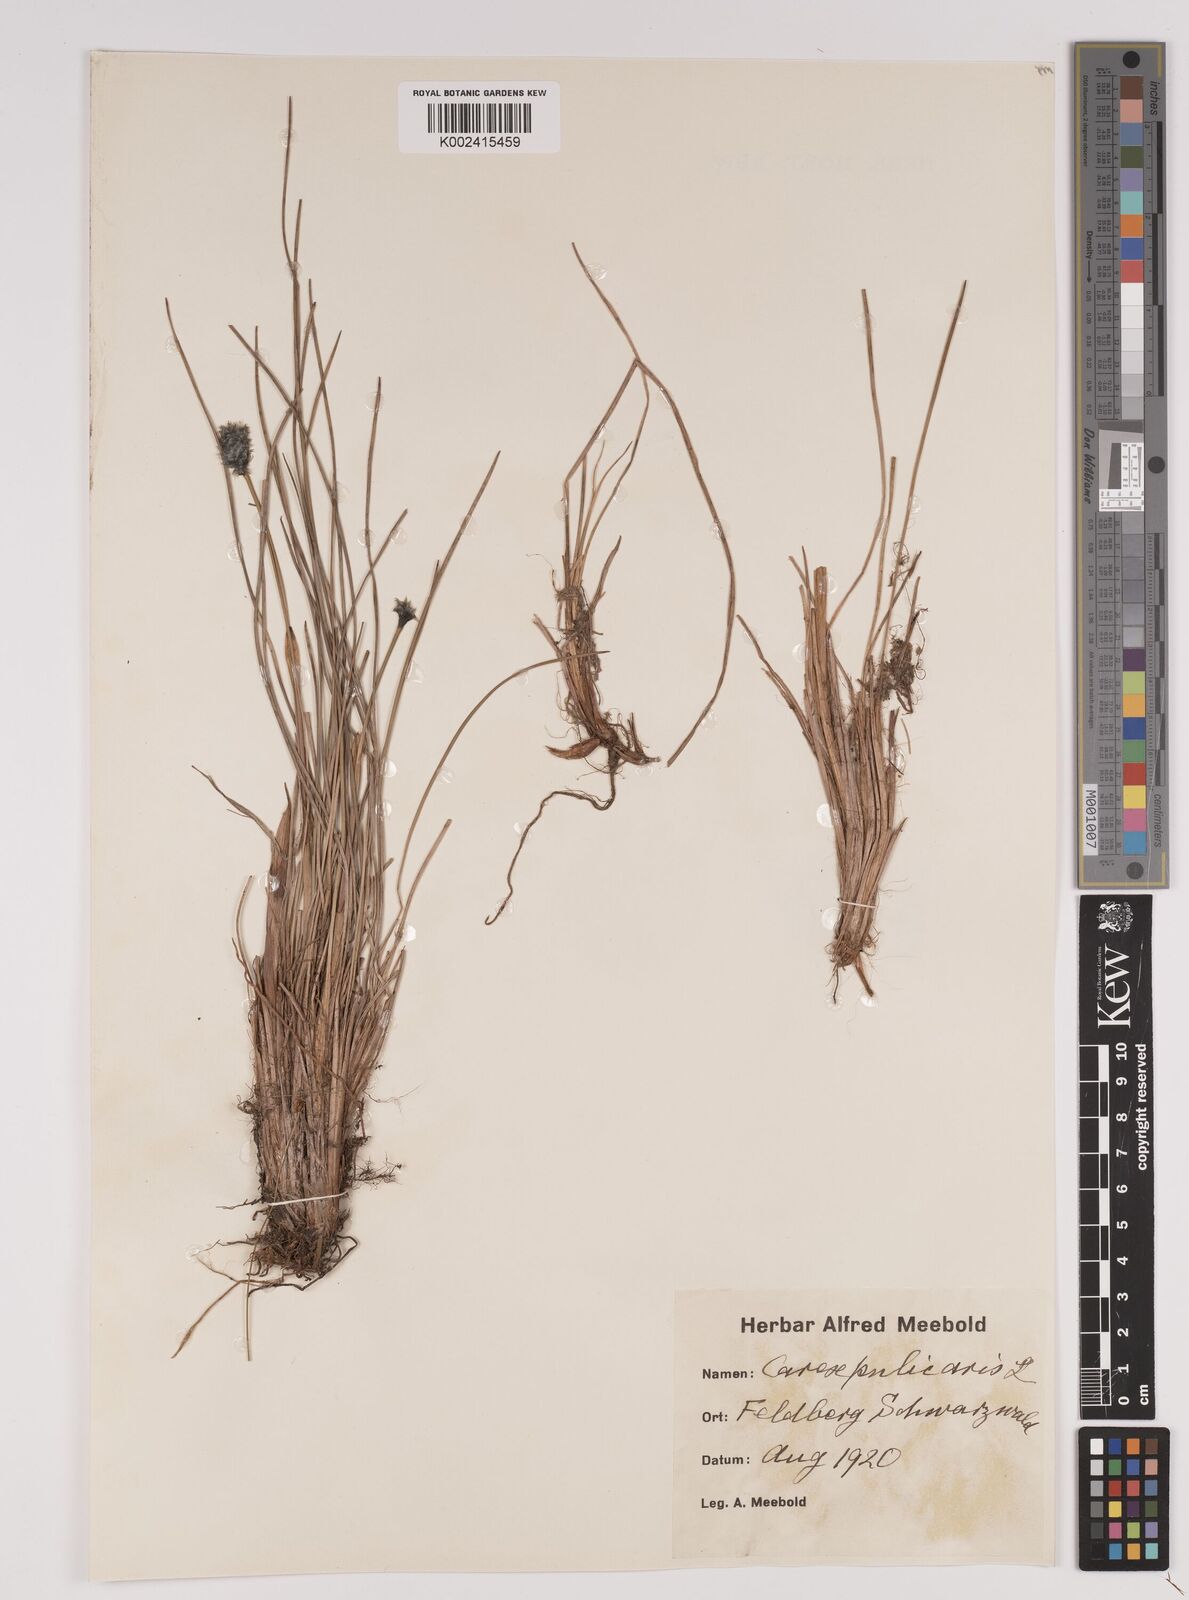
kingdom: Plantae
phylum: Tracheophyta
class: Liliopsida
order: Poales
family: Cyperaceae
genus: Carex
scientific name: Carex pulicaris
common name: Flea sedge
